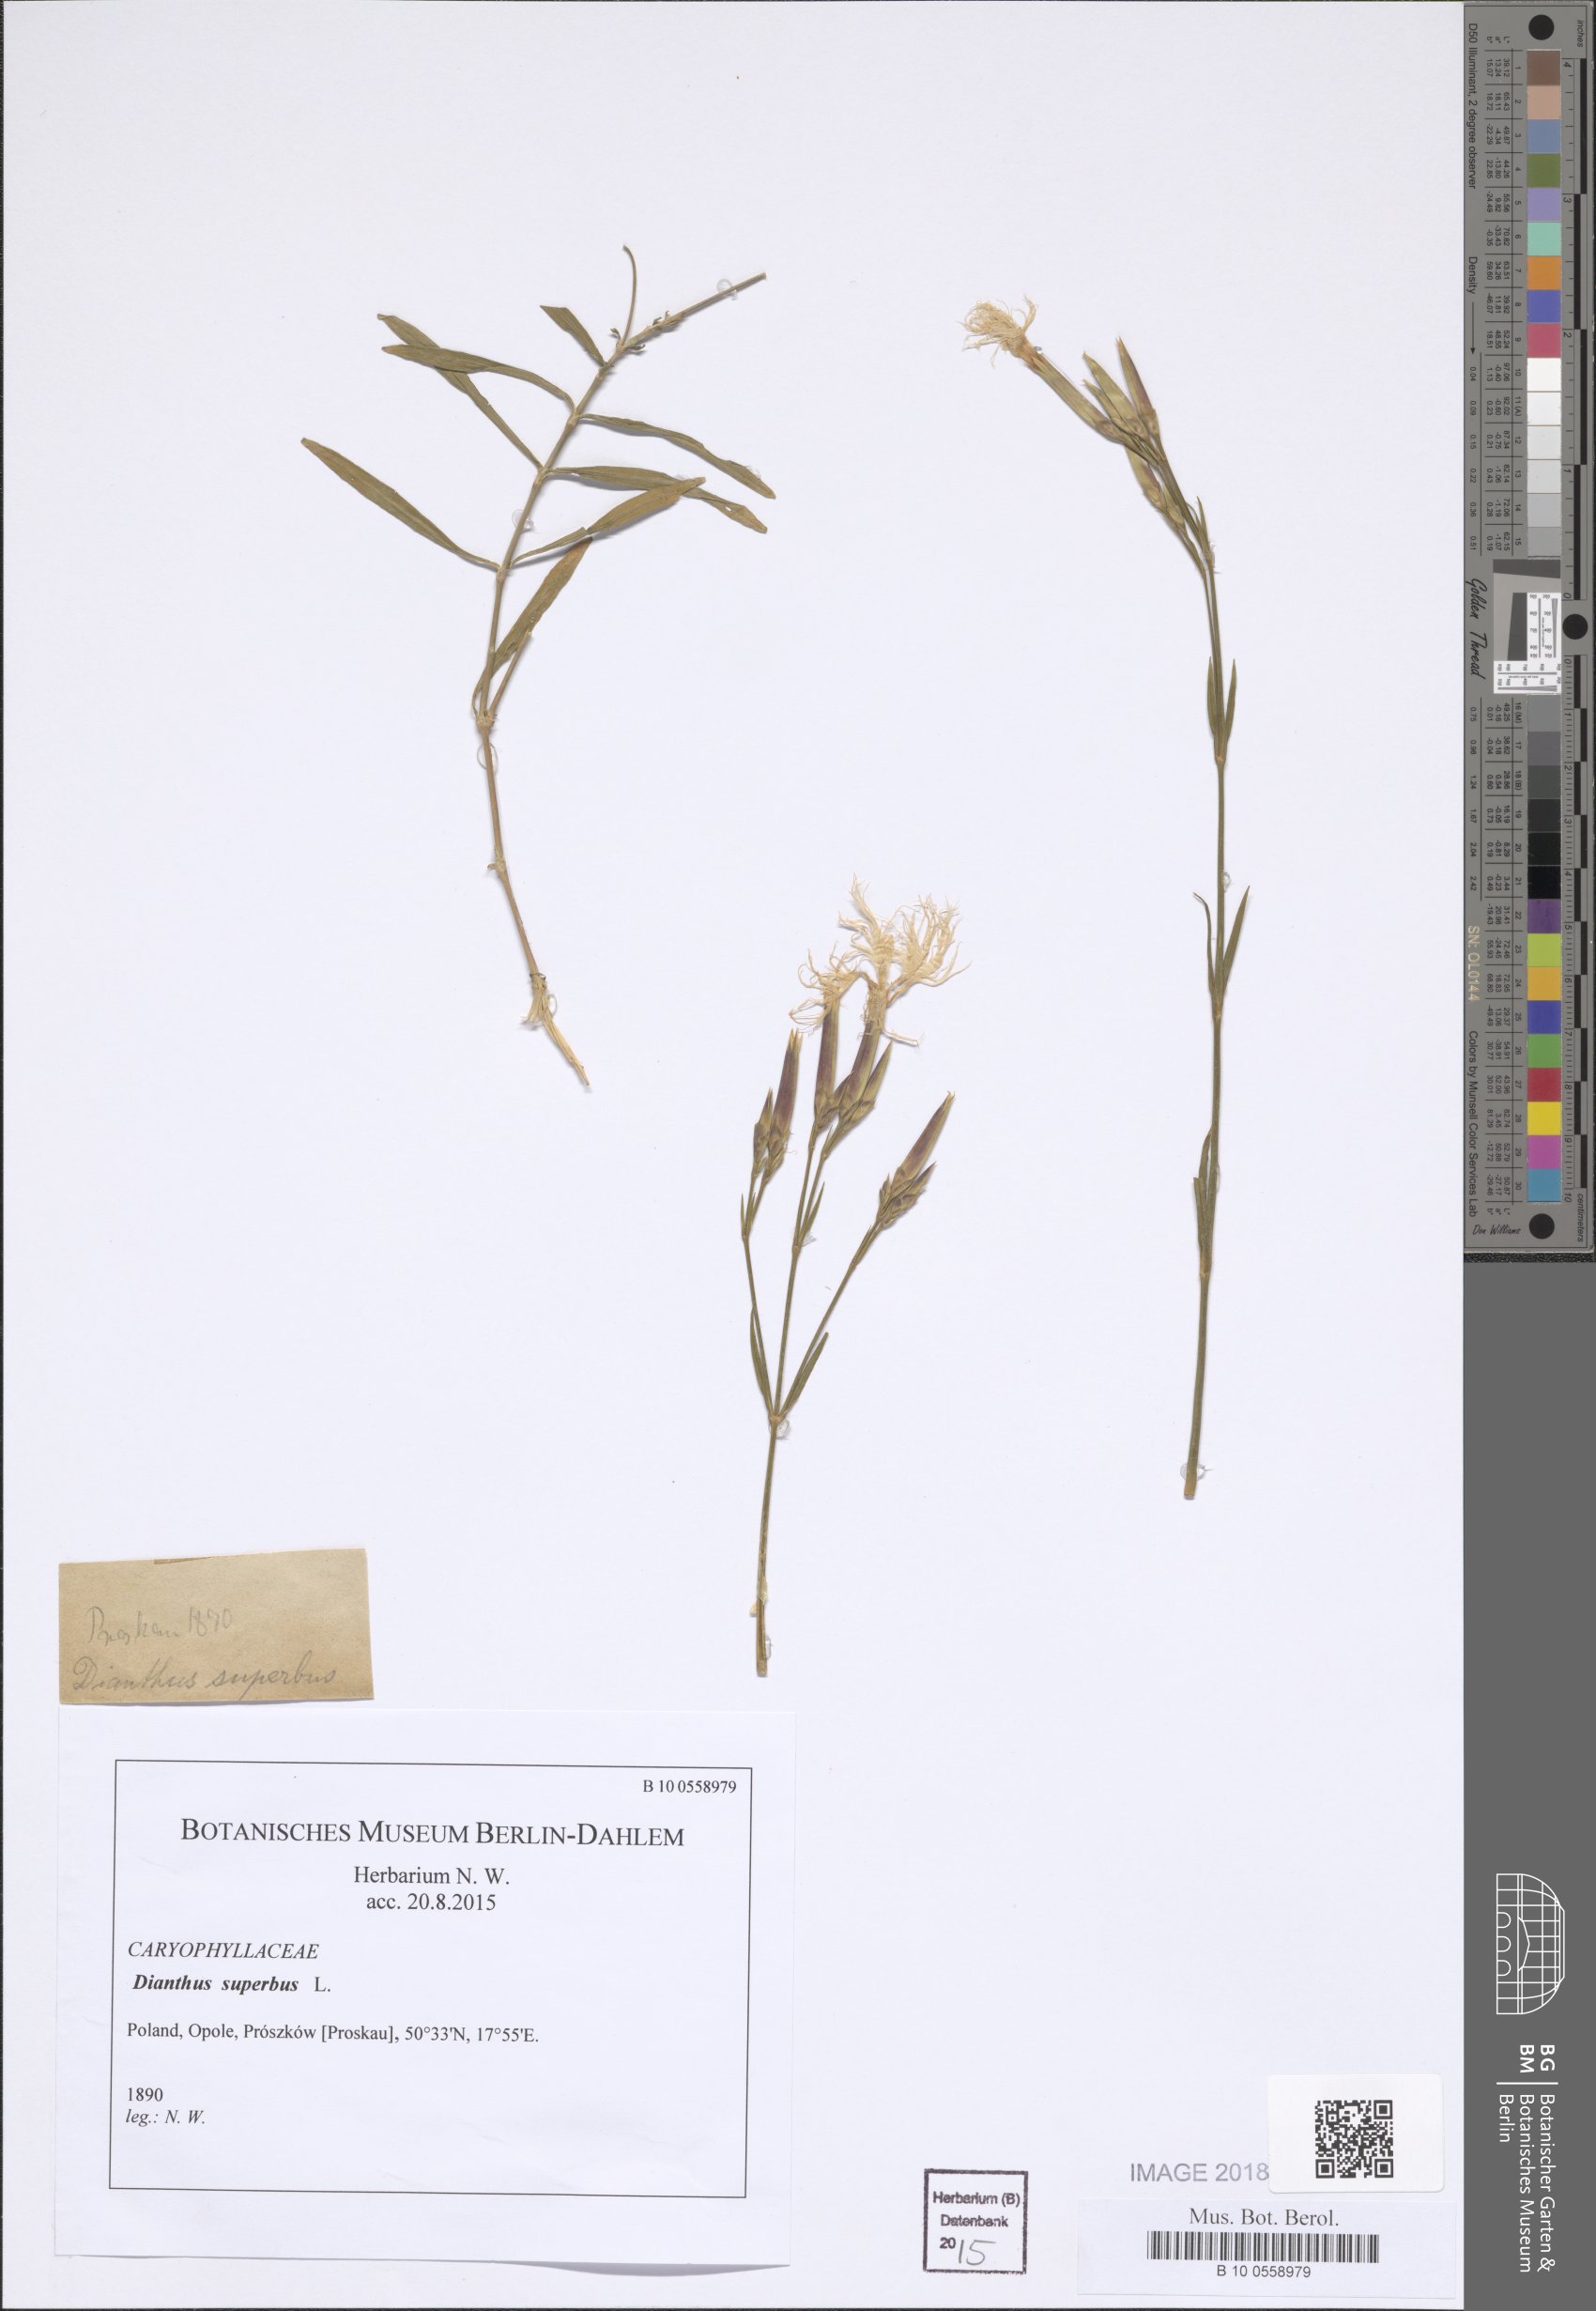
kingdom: Plantae
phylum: Tracheophyta
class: Magnoliopsida
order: Caryophyllales
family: Caryophyllaceae
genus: Dianthus
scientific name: Dianthus superbus
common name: Fringed pink
